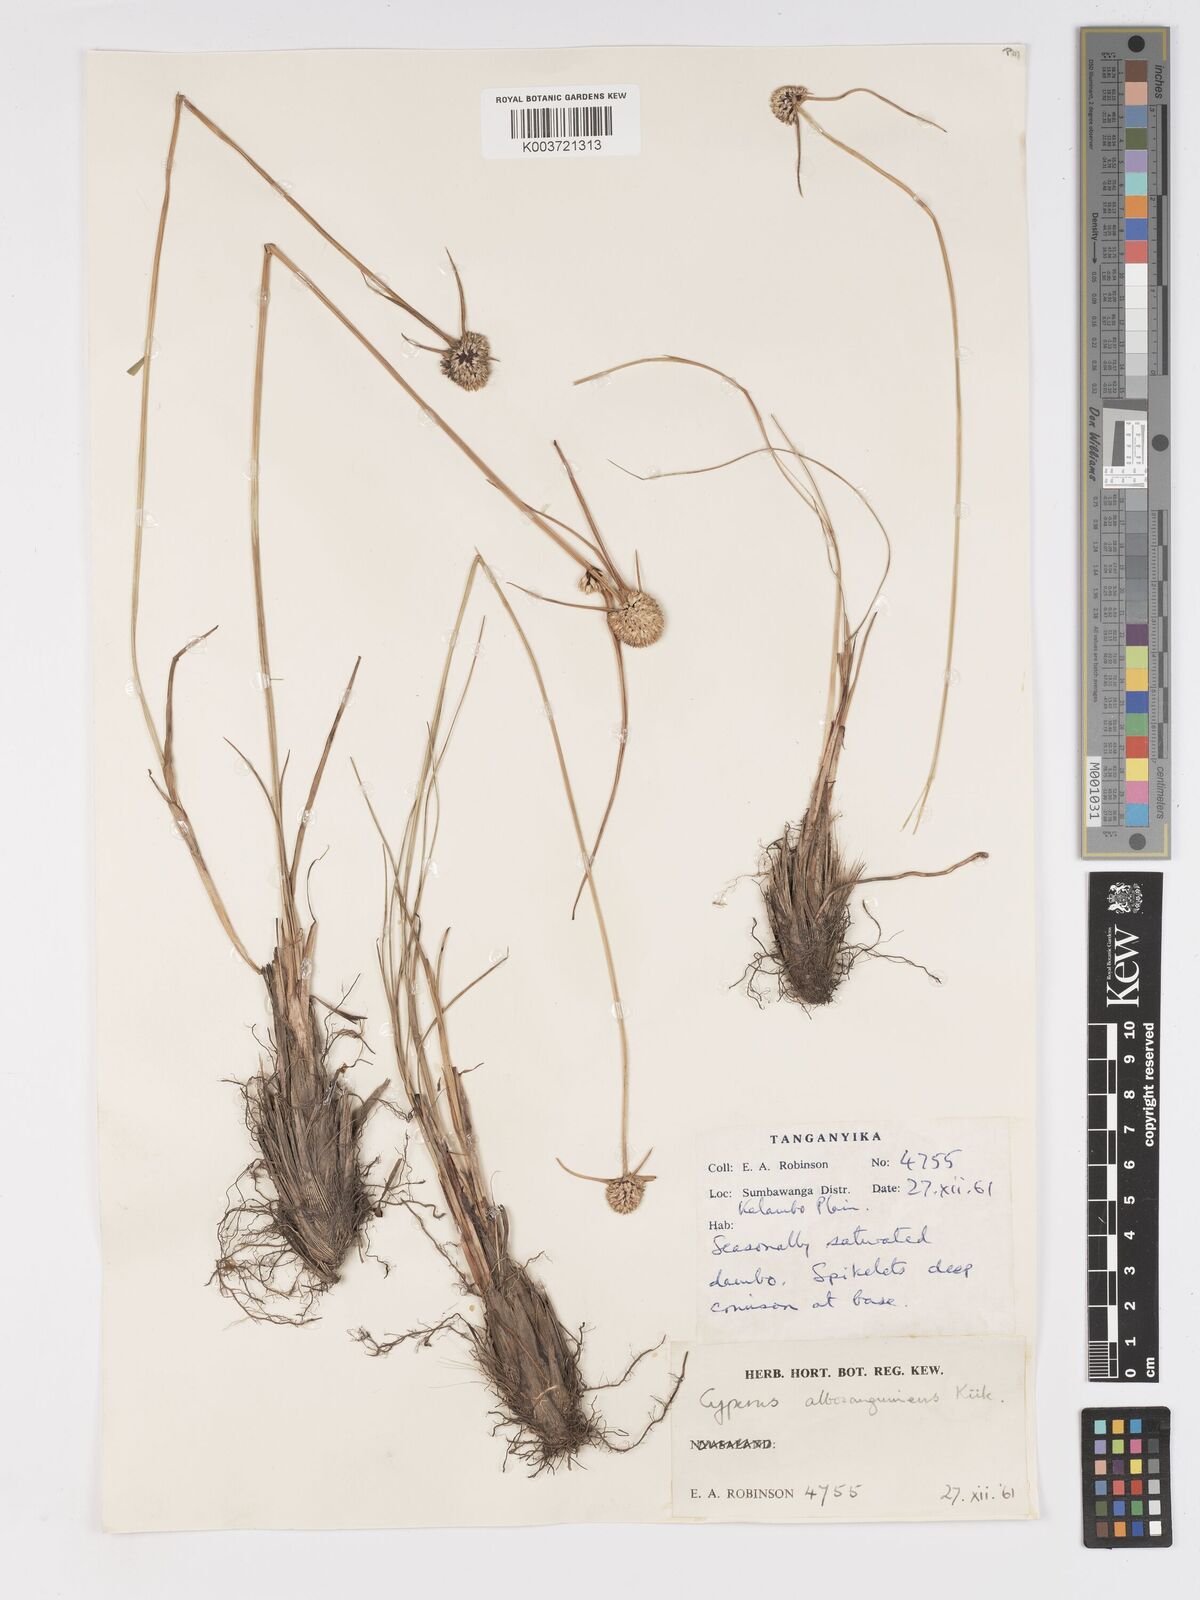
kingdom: Plantae
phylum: Tracheophyta
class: Liliopsida
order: Poales
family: Cyperaceae
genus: Cyperus
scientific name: Cyperus albosanguineus
